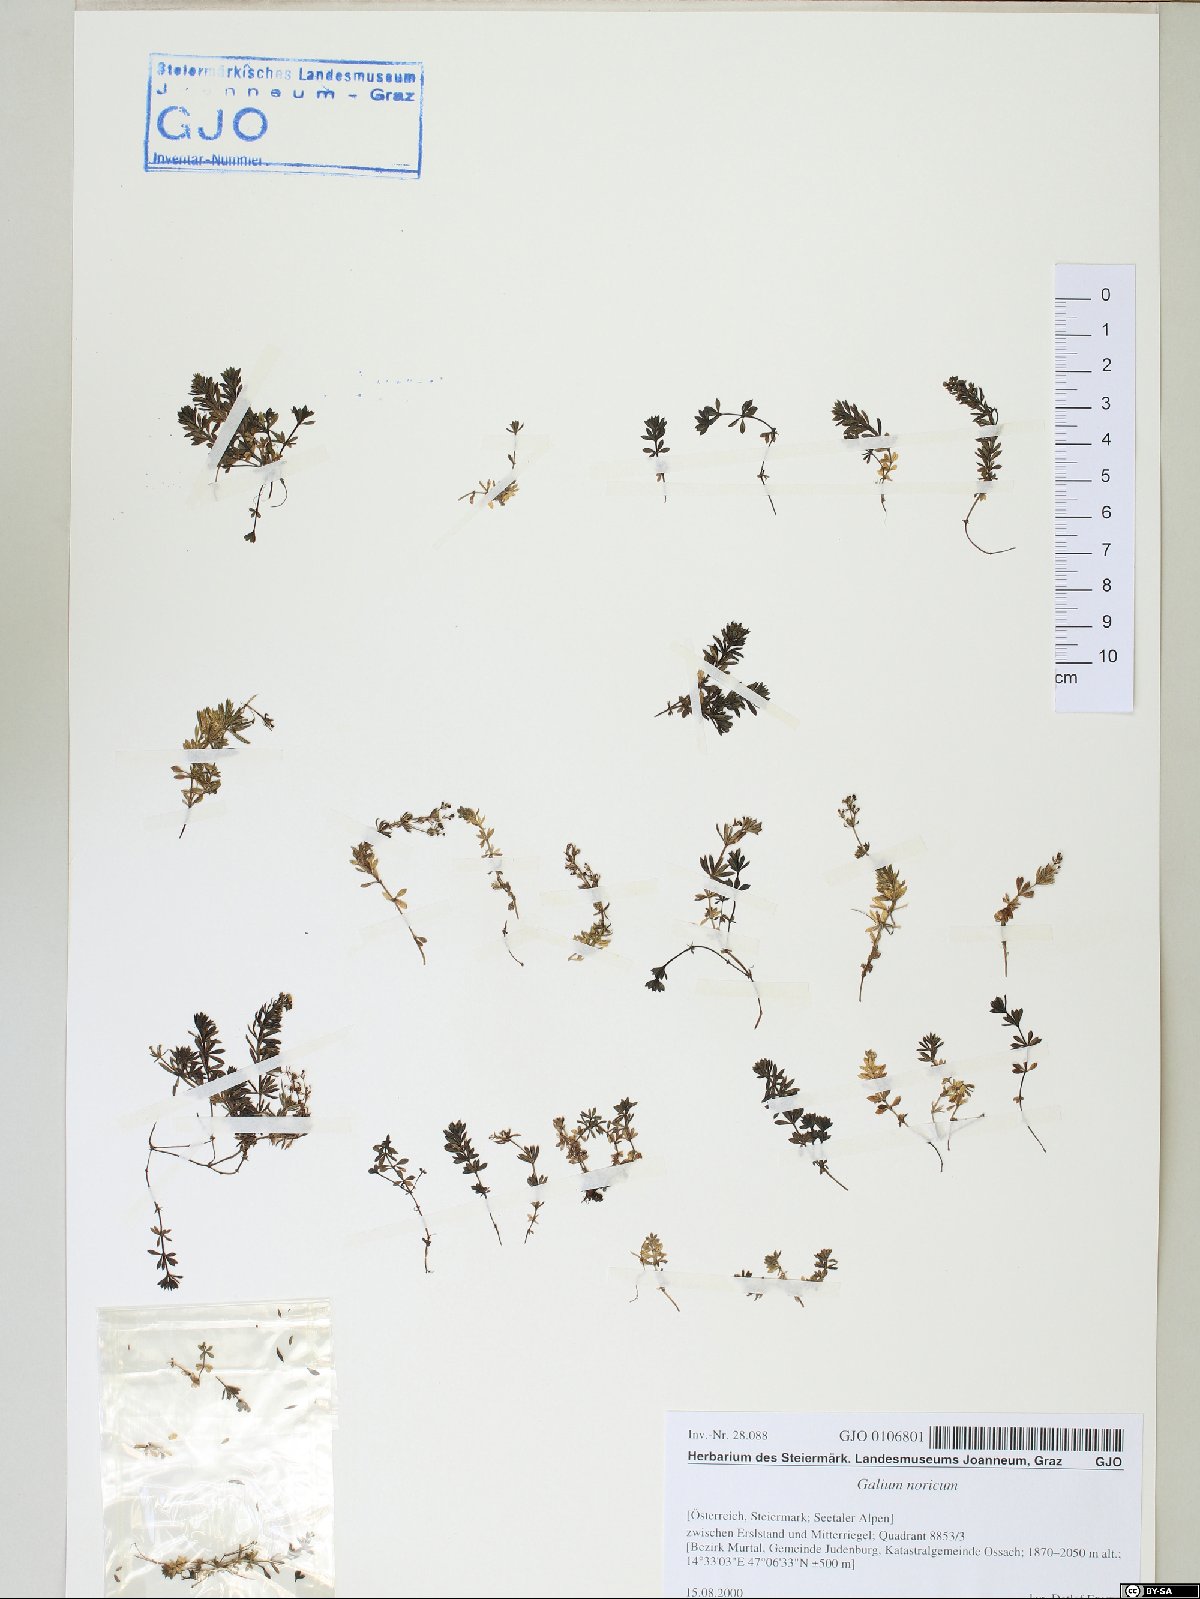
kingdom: Plantae
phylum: Tracheophyta
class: Magnoliopsida
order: Gentianales
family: Rubiaceae
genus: Galium
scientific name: Galium noricum
